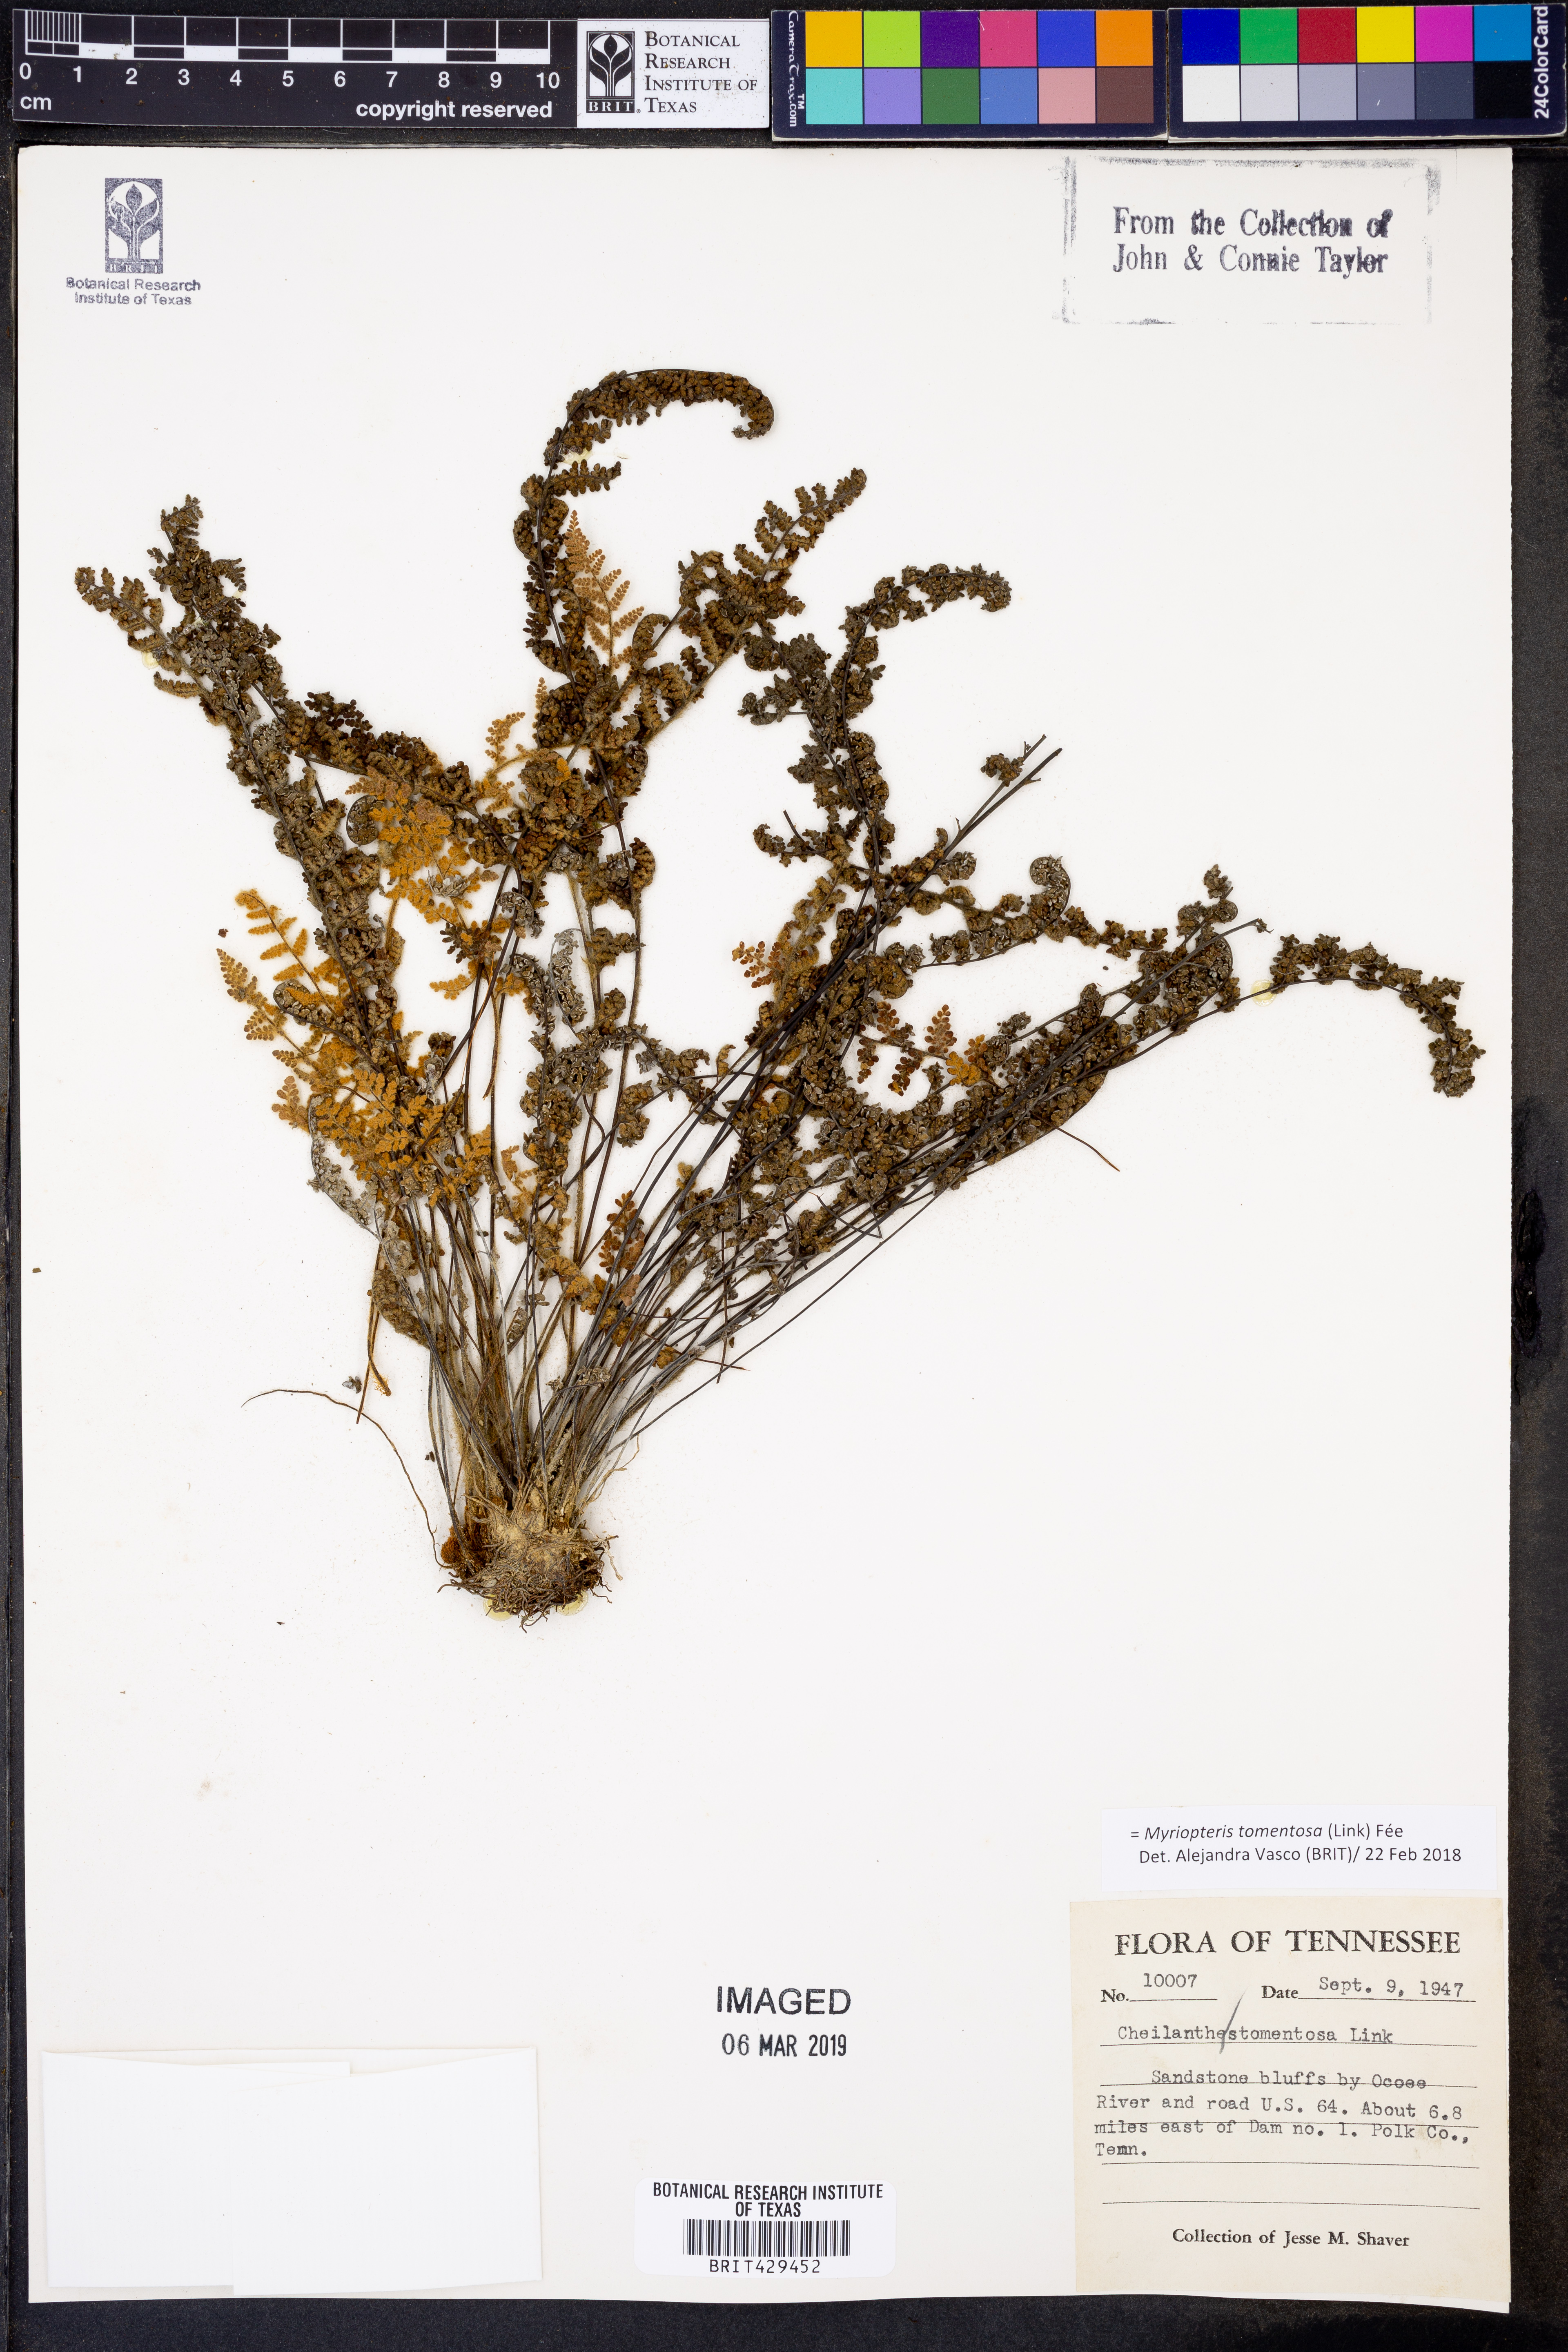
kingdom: Plantae
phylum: Tracheophyta
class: Polypodiopsida
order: Polypodiales
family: Pteridaceae
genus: Myriopteris
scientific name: Myriopteris tomentosa
